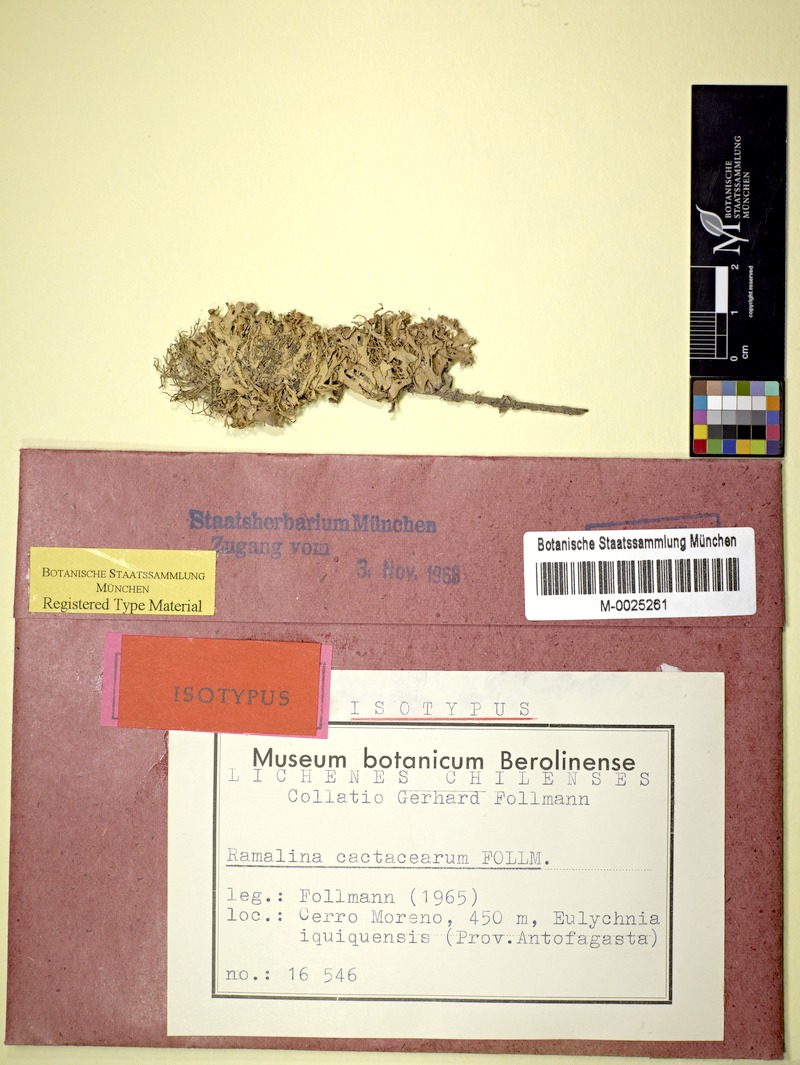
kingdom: Fungi
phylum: Ascomycota
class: Lecanoromycetes
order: Lecanorales
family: Ramalinaceae
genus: Ramalina
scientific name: Ramalina cactacearum
